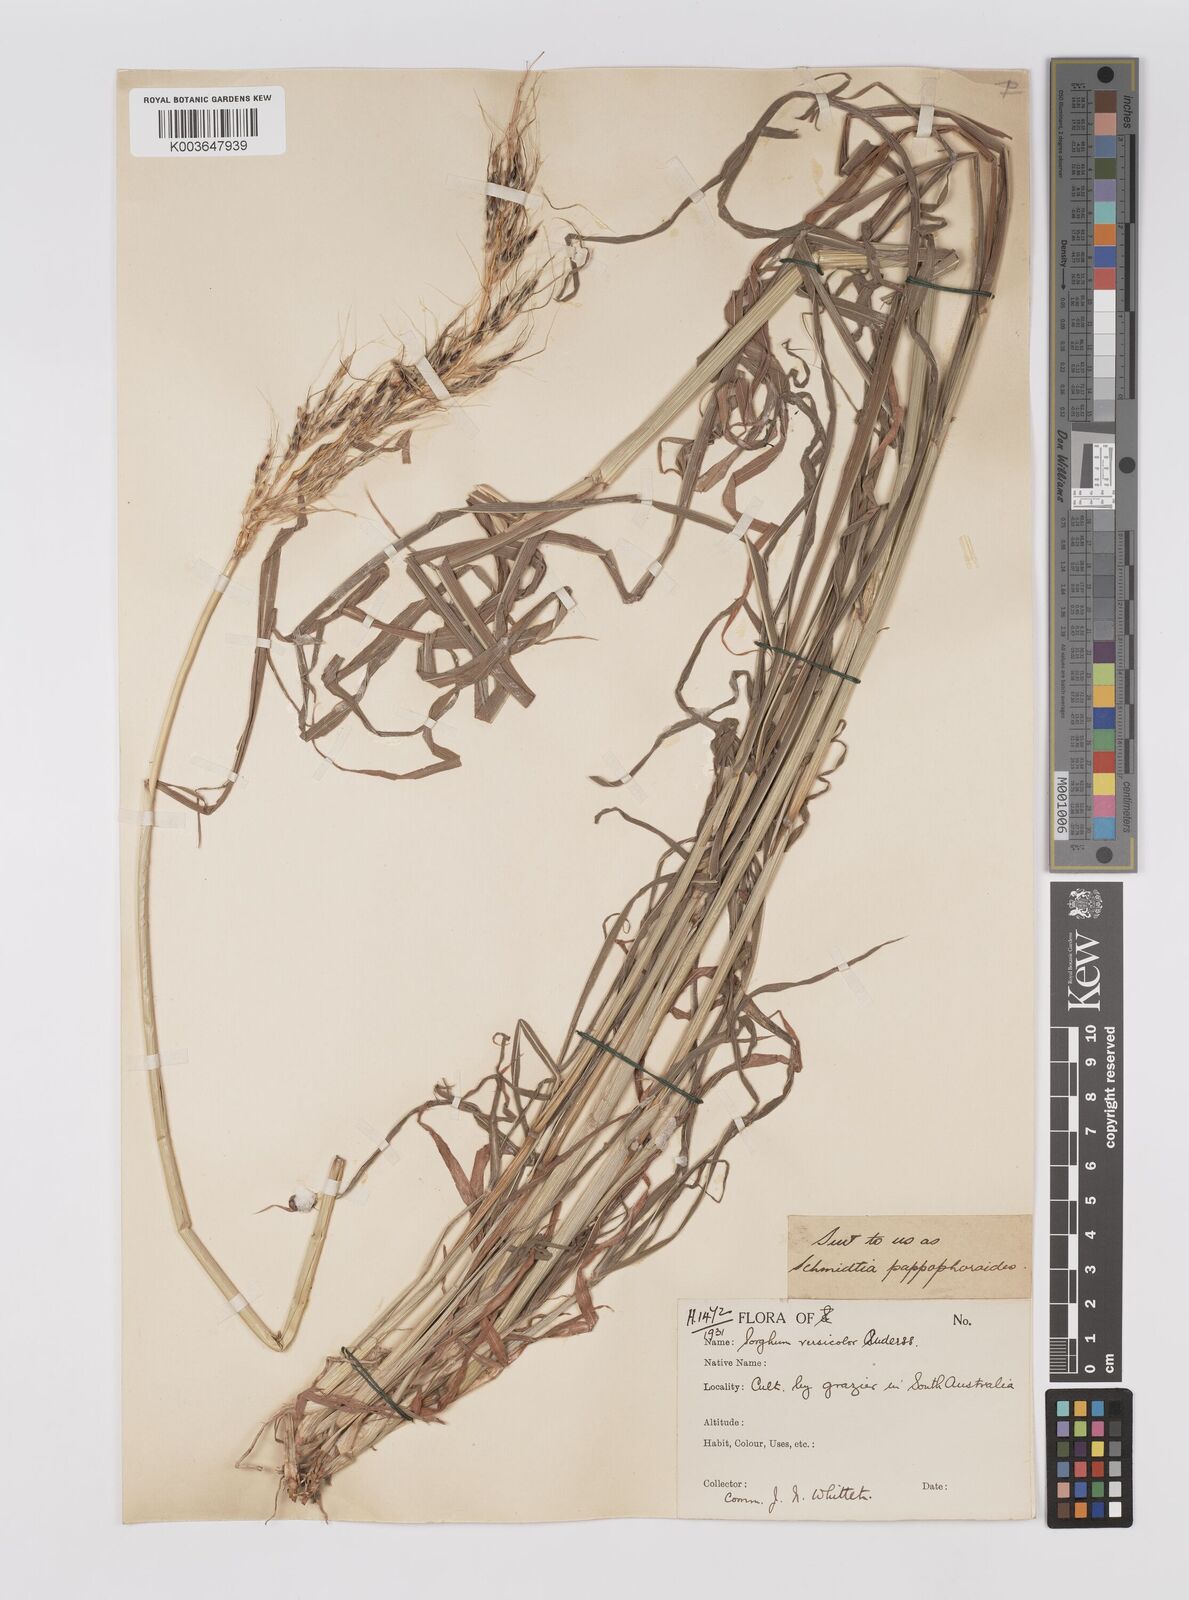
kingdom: Plantae
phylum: Tracheophyta
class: Liliopsida
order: Poales
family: Poaceae
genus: Sarga
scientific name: Sarga versicolor
